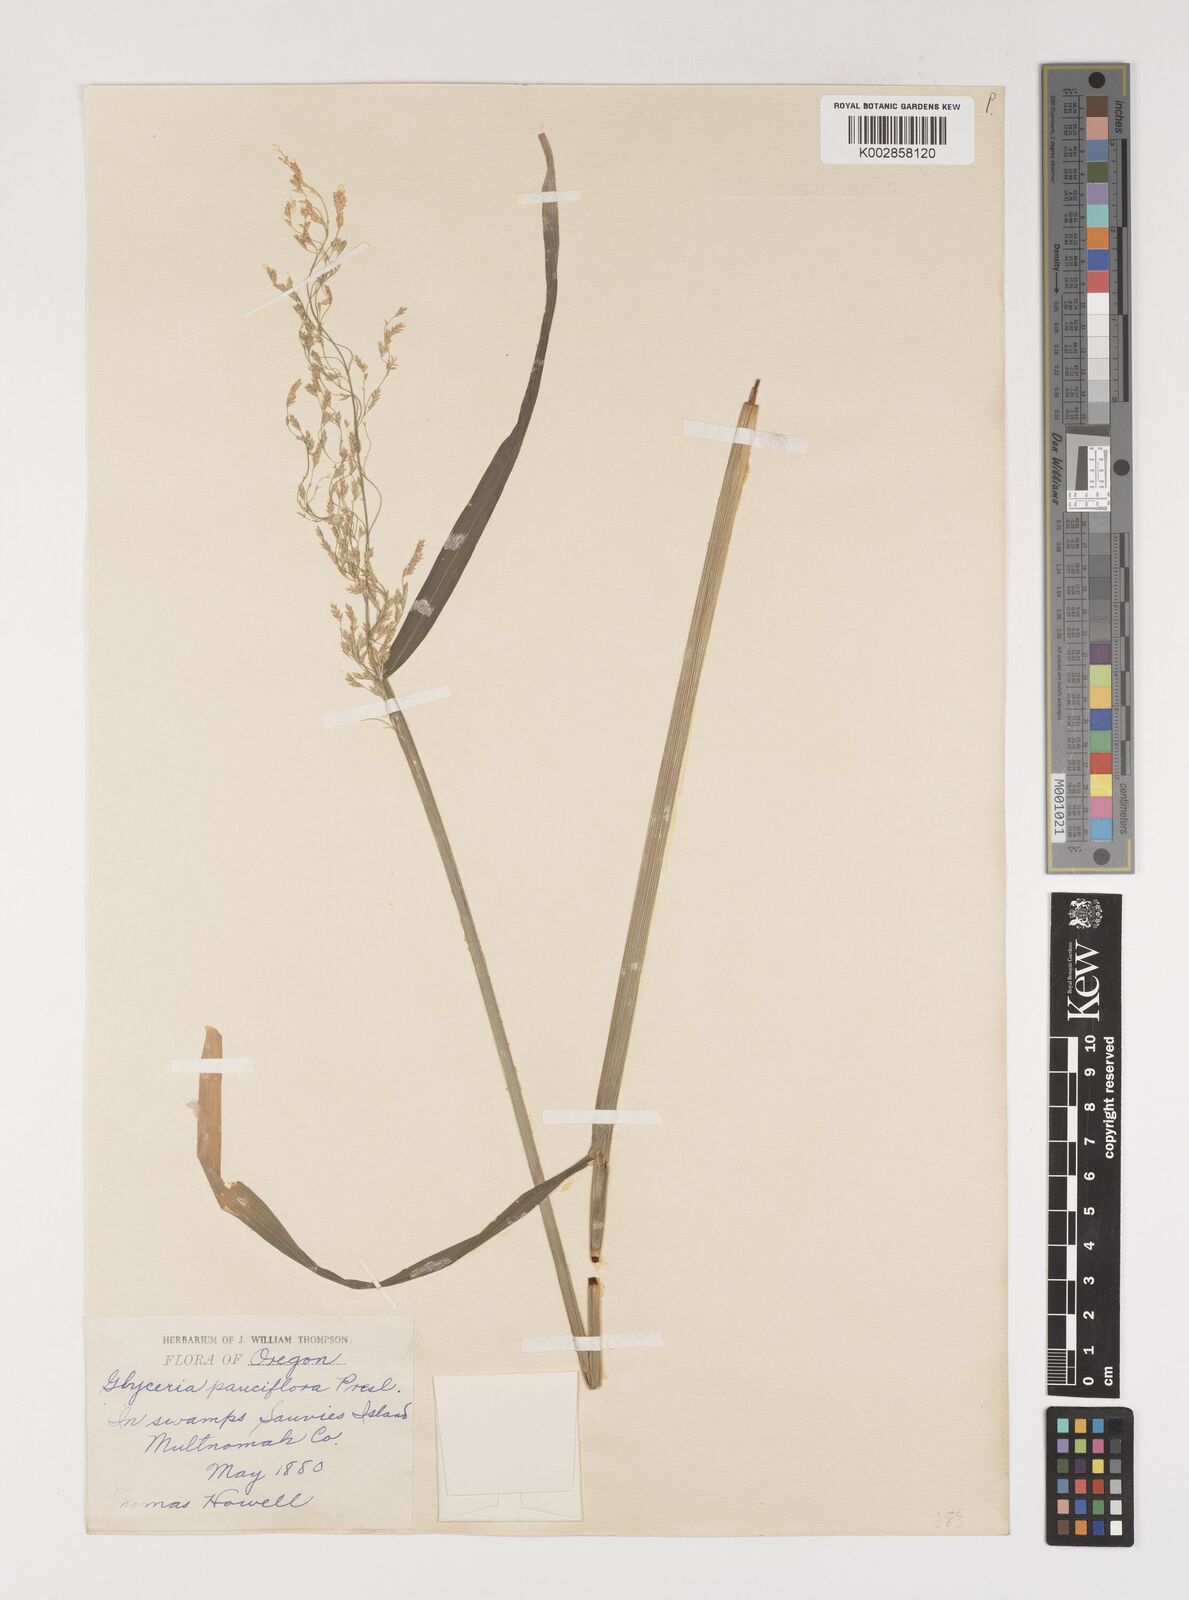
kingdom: Plantae
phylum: Tracheophyta
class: Liliopsida
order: Poales
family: Poaceae
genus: Torreyochloa
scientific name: Torreyochloa pallida
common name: Pale false mannagrass
